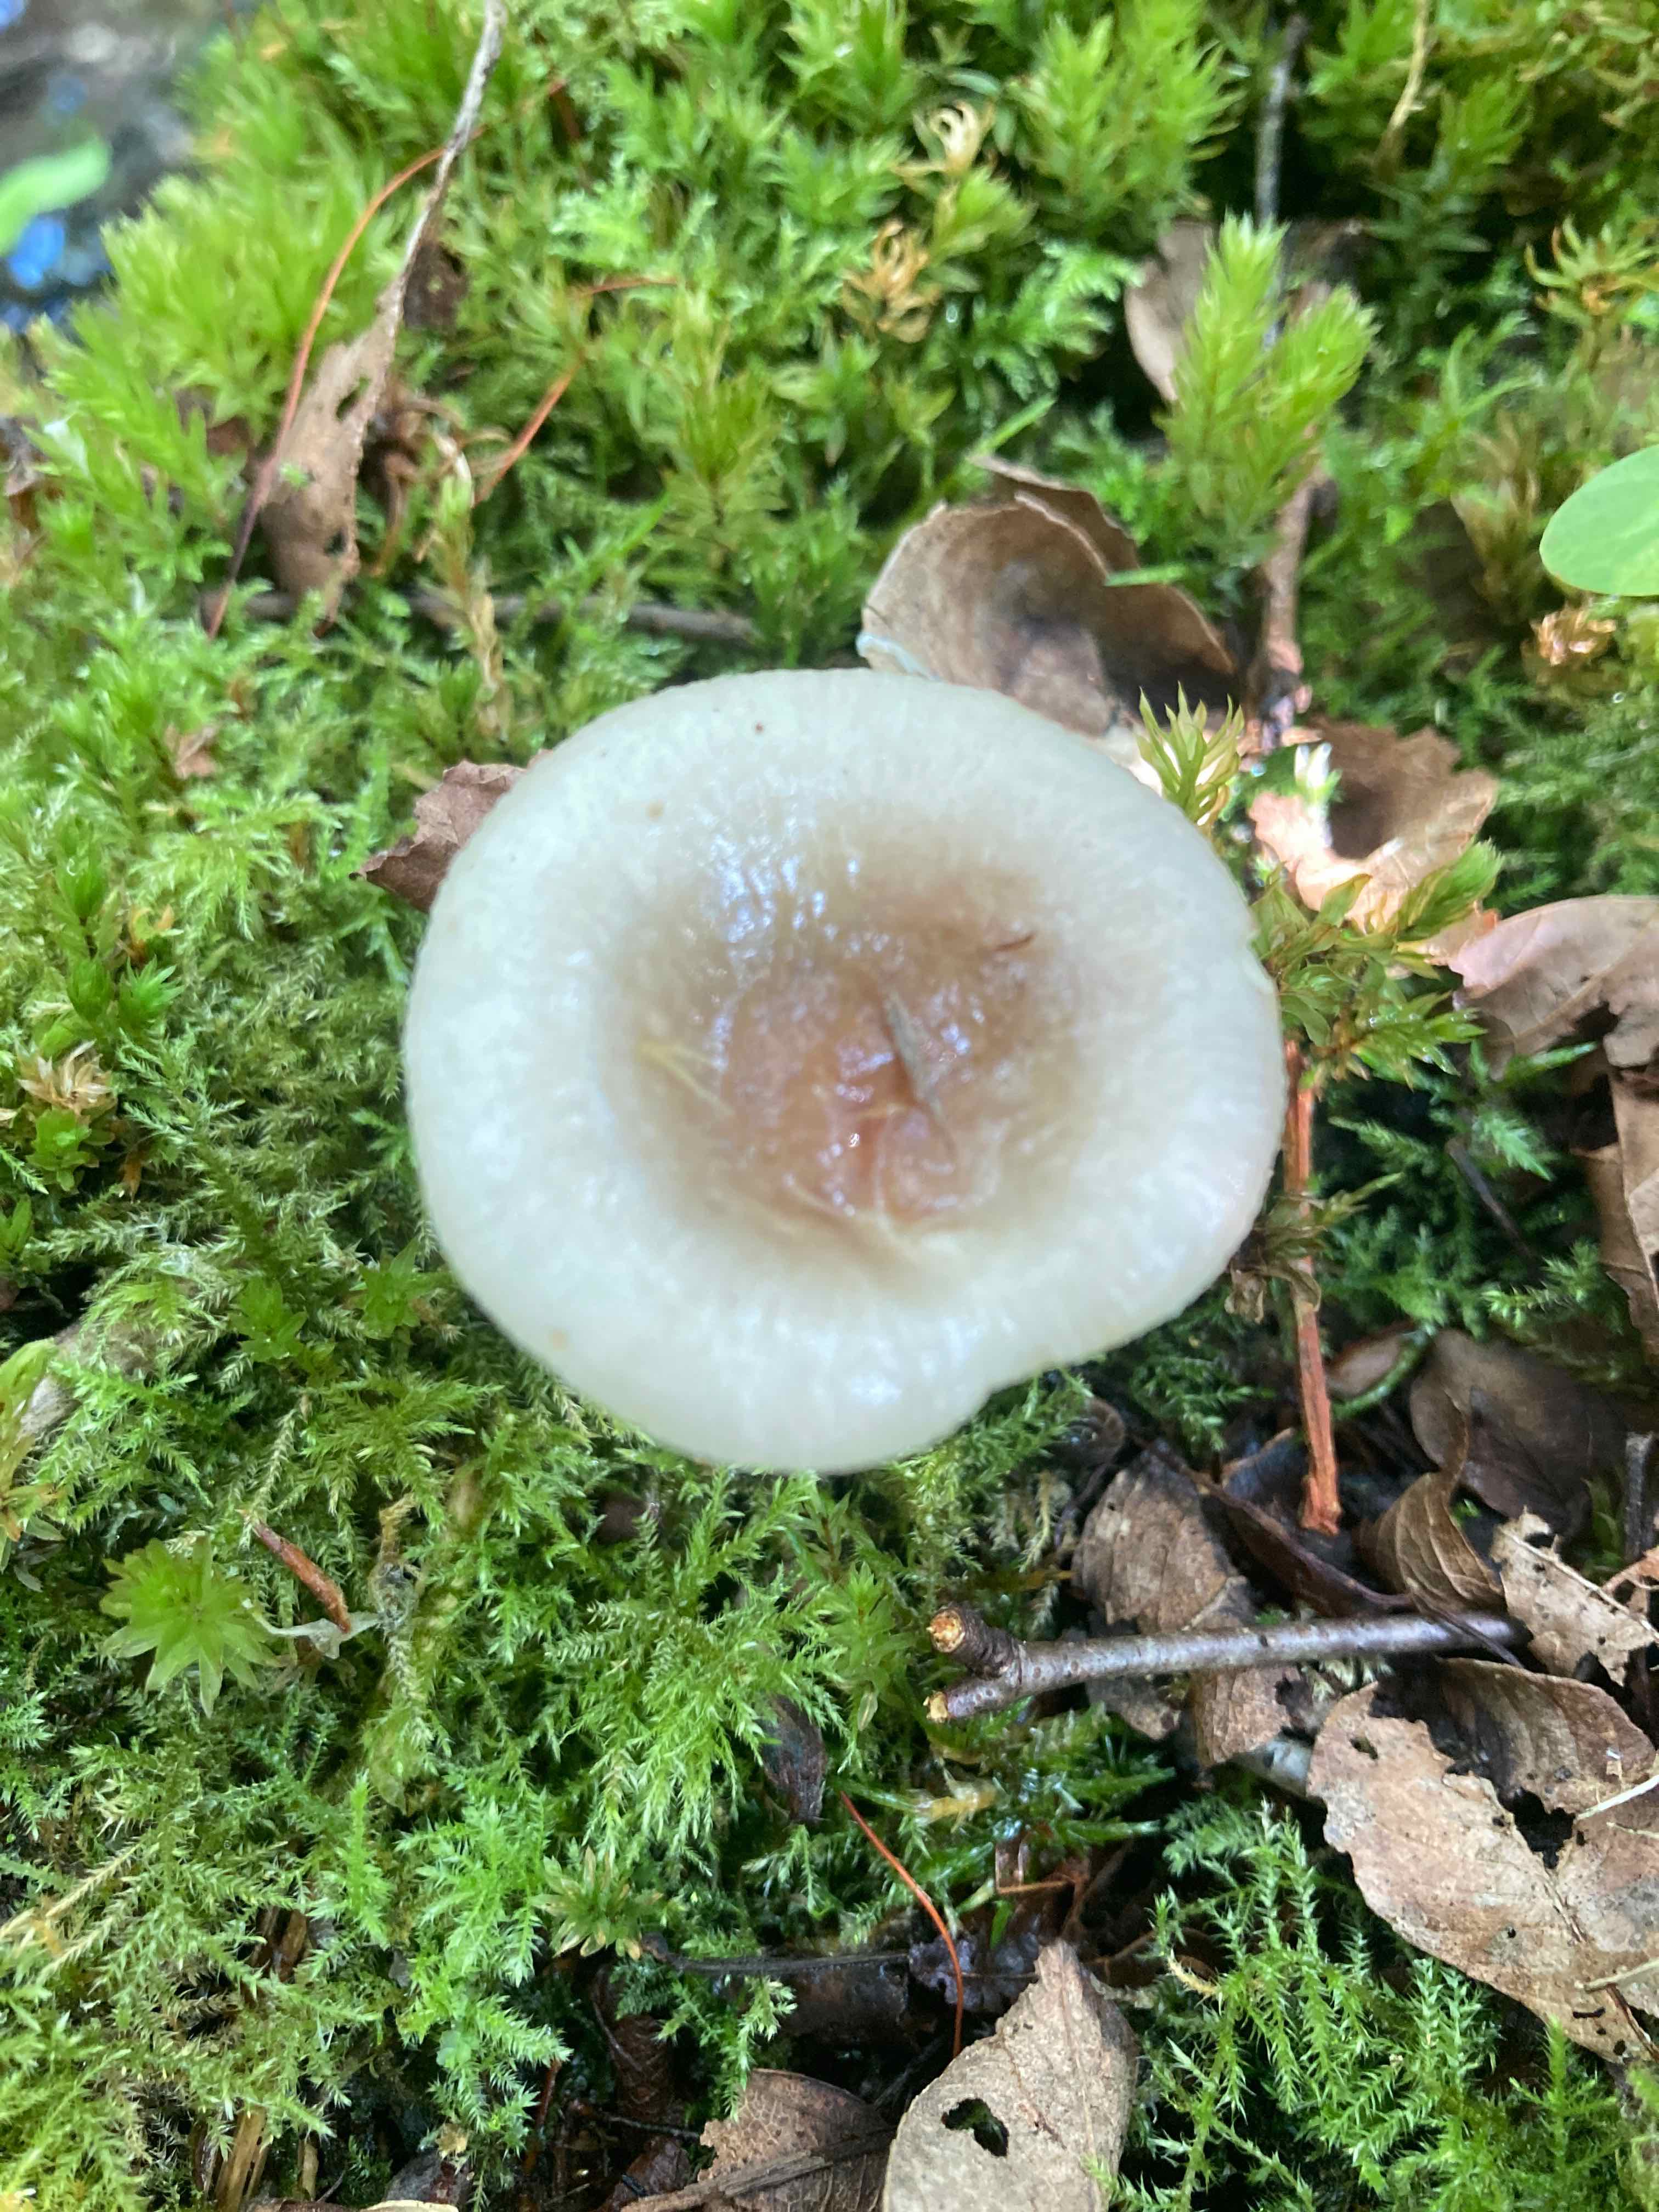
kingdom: Fungi
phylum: Basidiomycota
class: Agaricomycetes
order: Russulales
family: Russulaceae
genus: Russula
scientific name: Russula versicolor
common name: foranderlig skørhat
